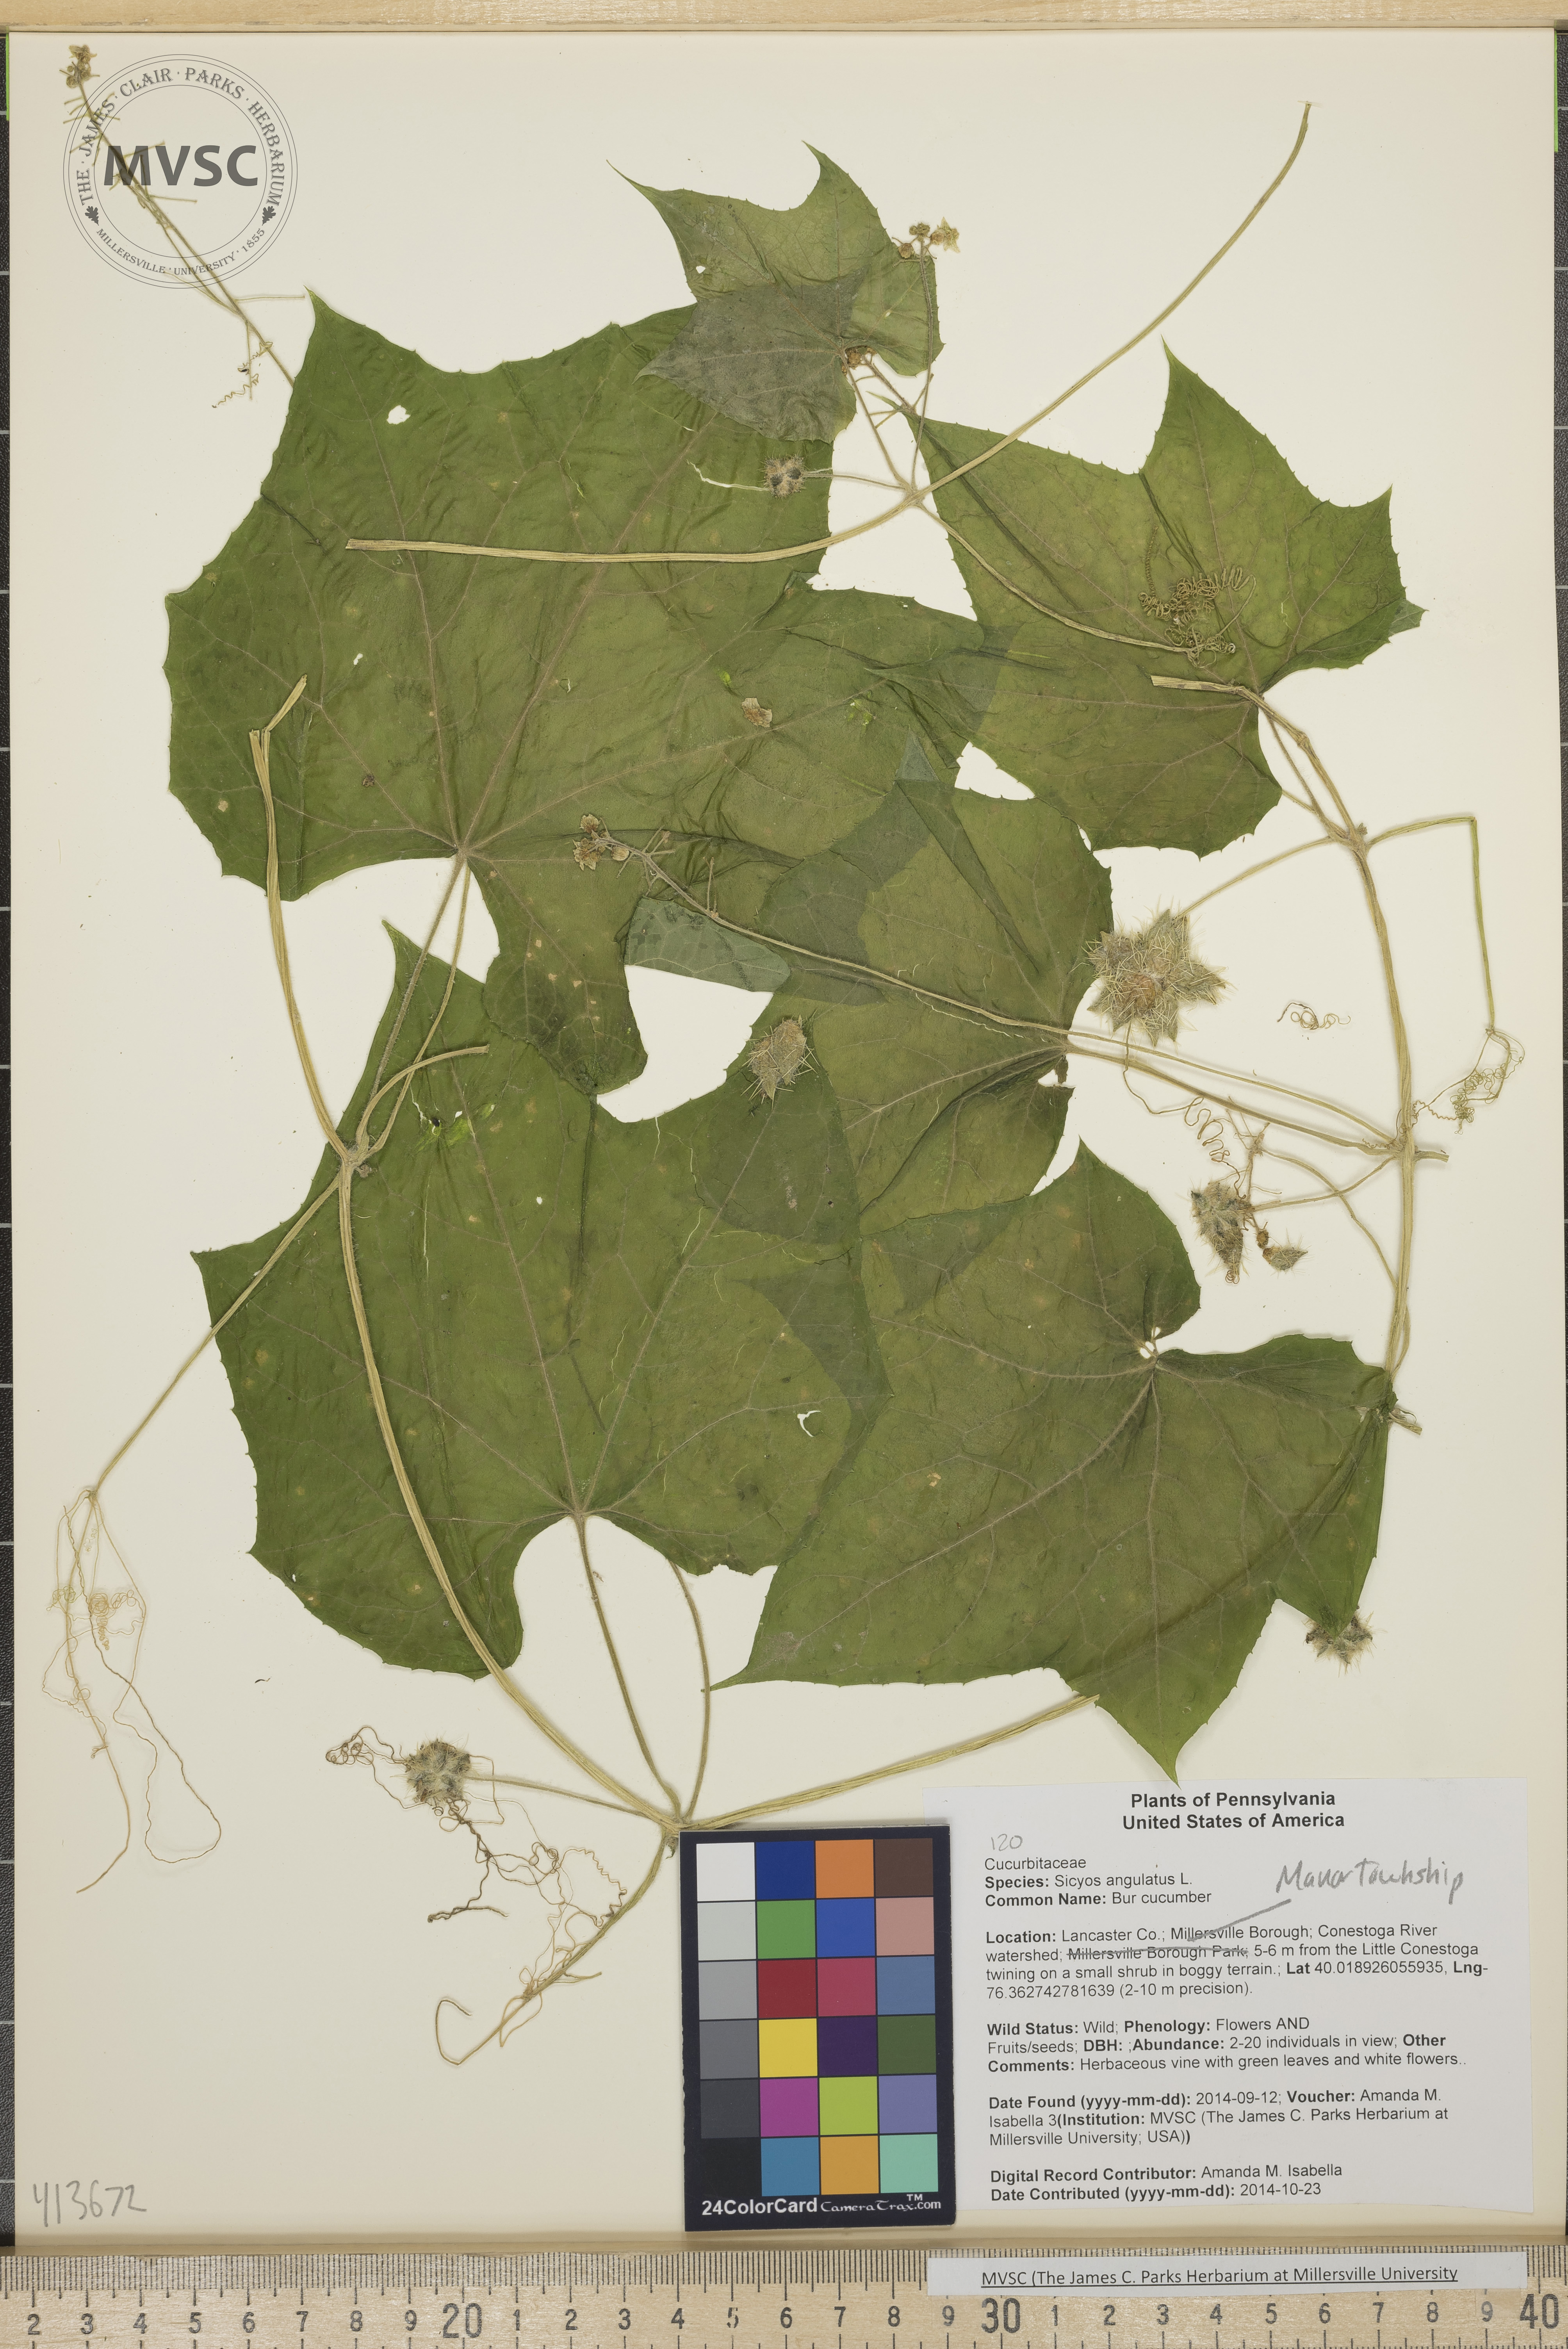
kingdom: Plantae
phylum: Tracheophyta
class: Magnoliopsida
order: Cucurbitales
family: Cucurbitaceae
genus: Sicyos
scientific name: Sicyos angulatus
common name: Bur cucumber
